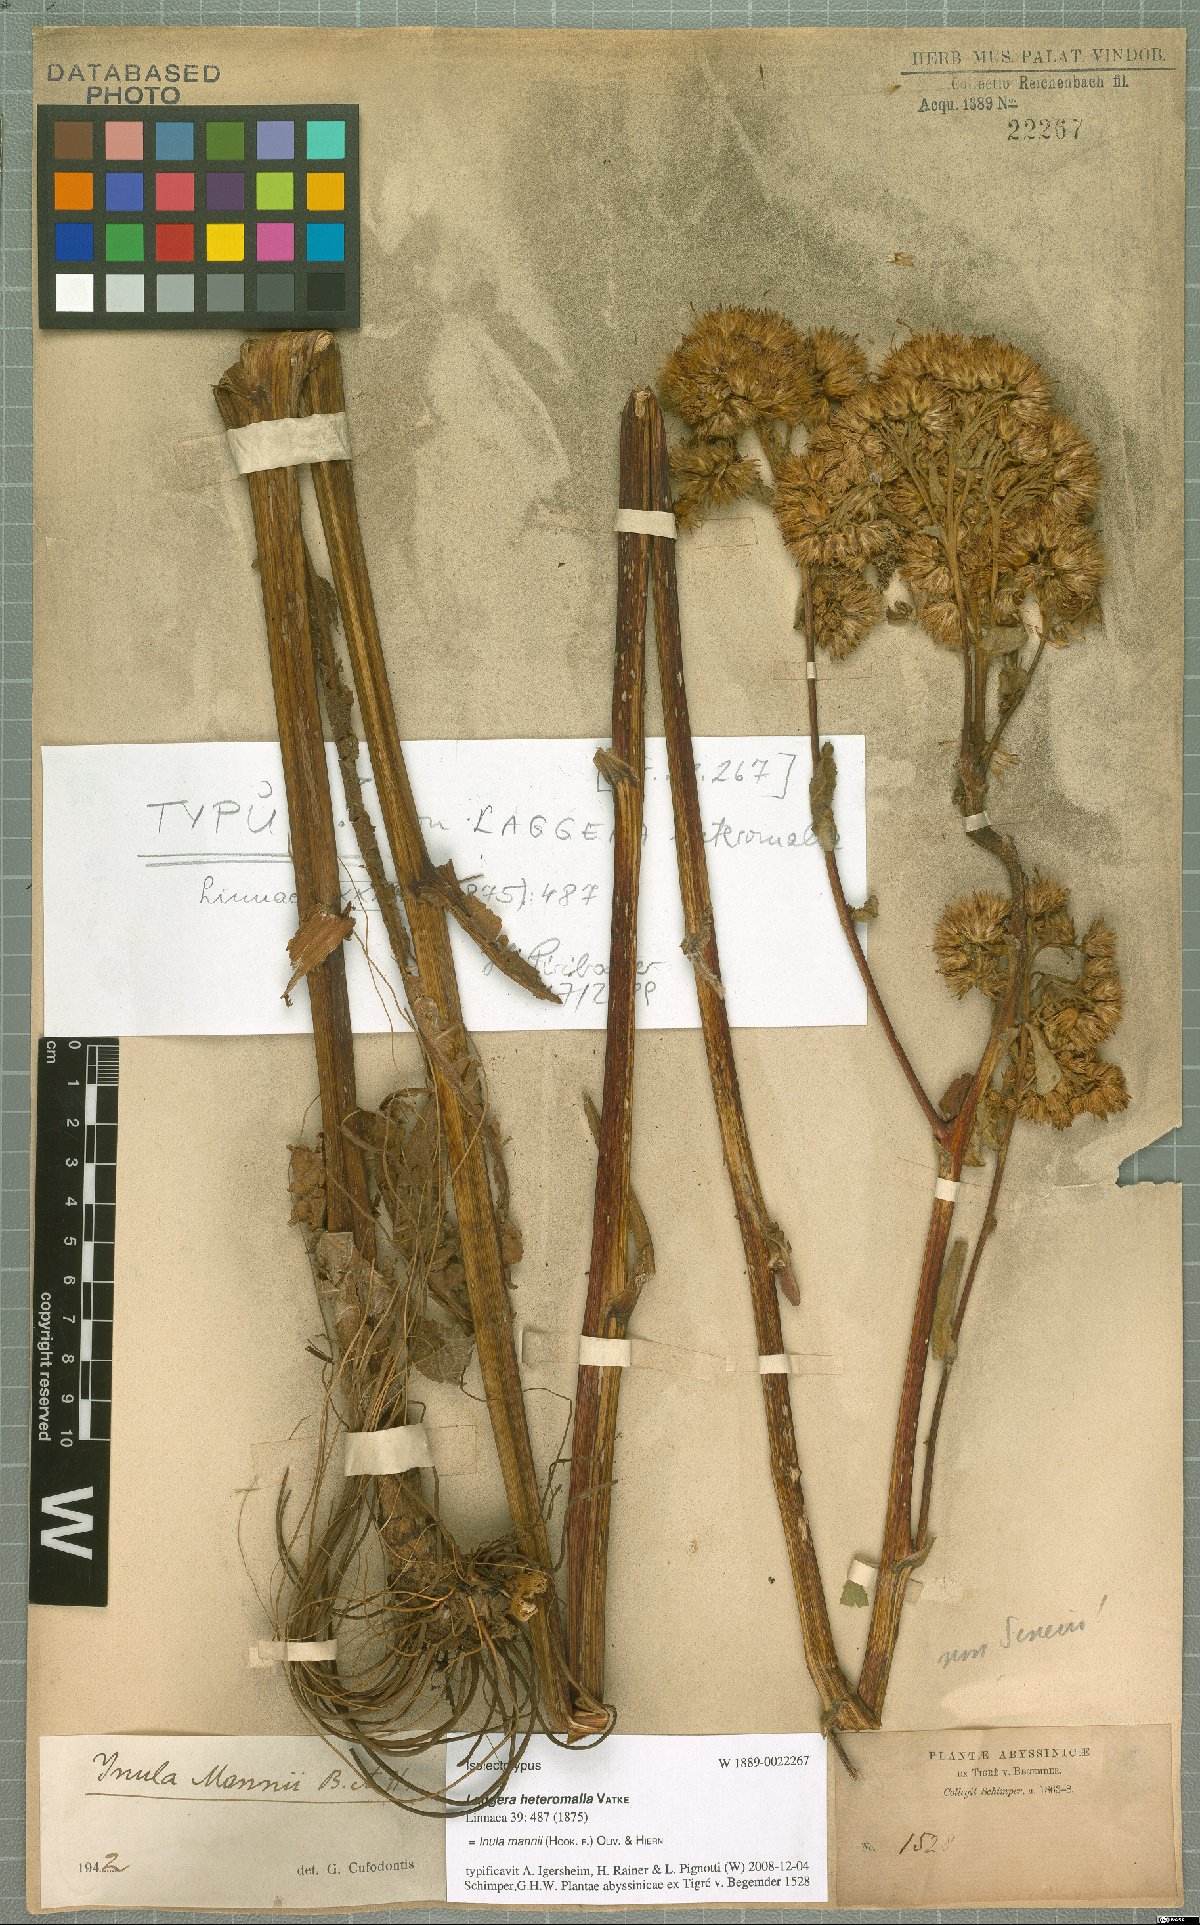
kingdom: Plantae
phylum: Tracheophyta
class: Magnoliopsida
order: Asterales
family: Asteraceae
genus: Inula
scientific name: Inula mannii
